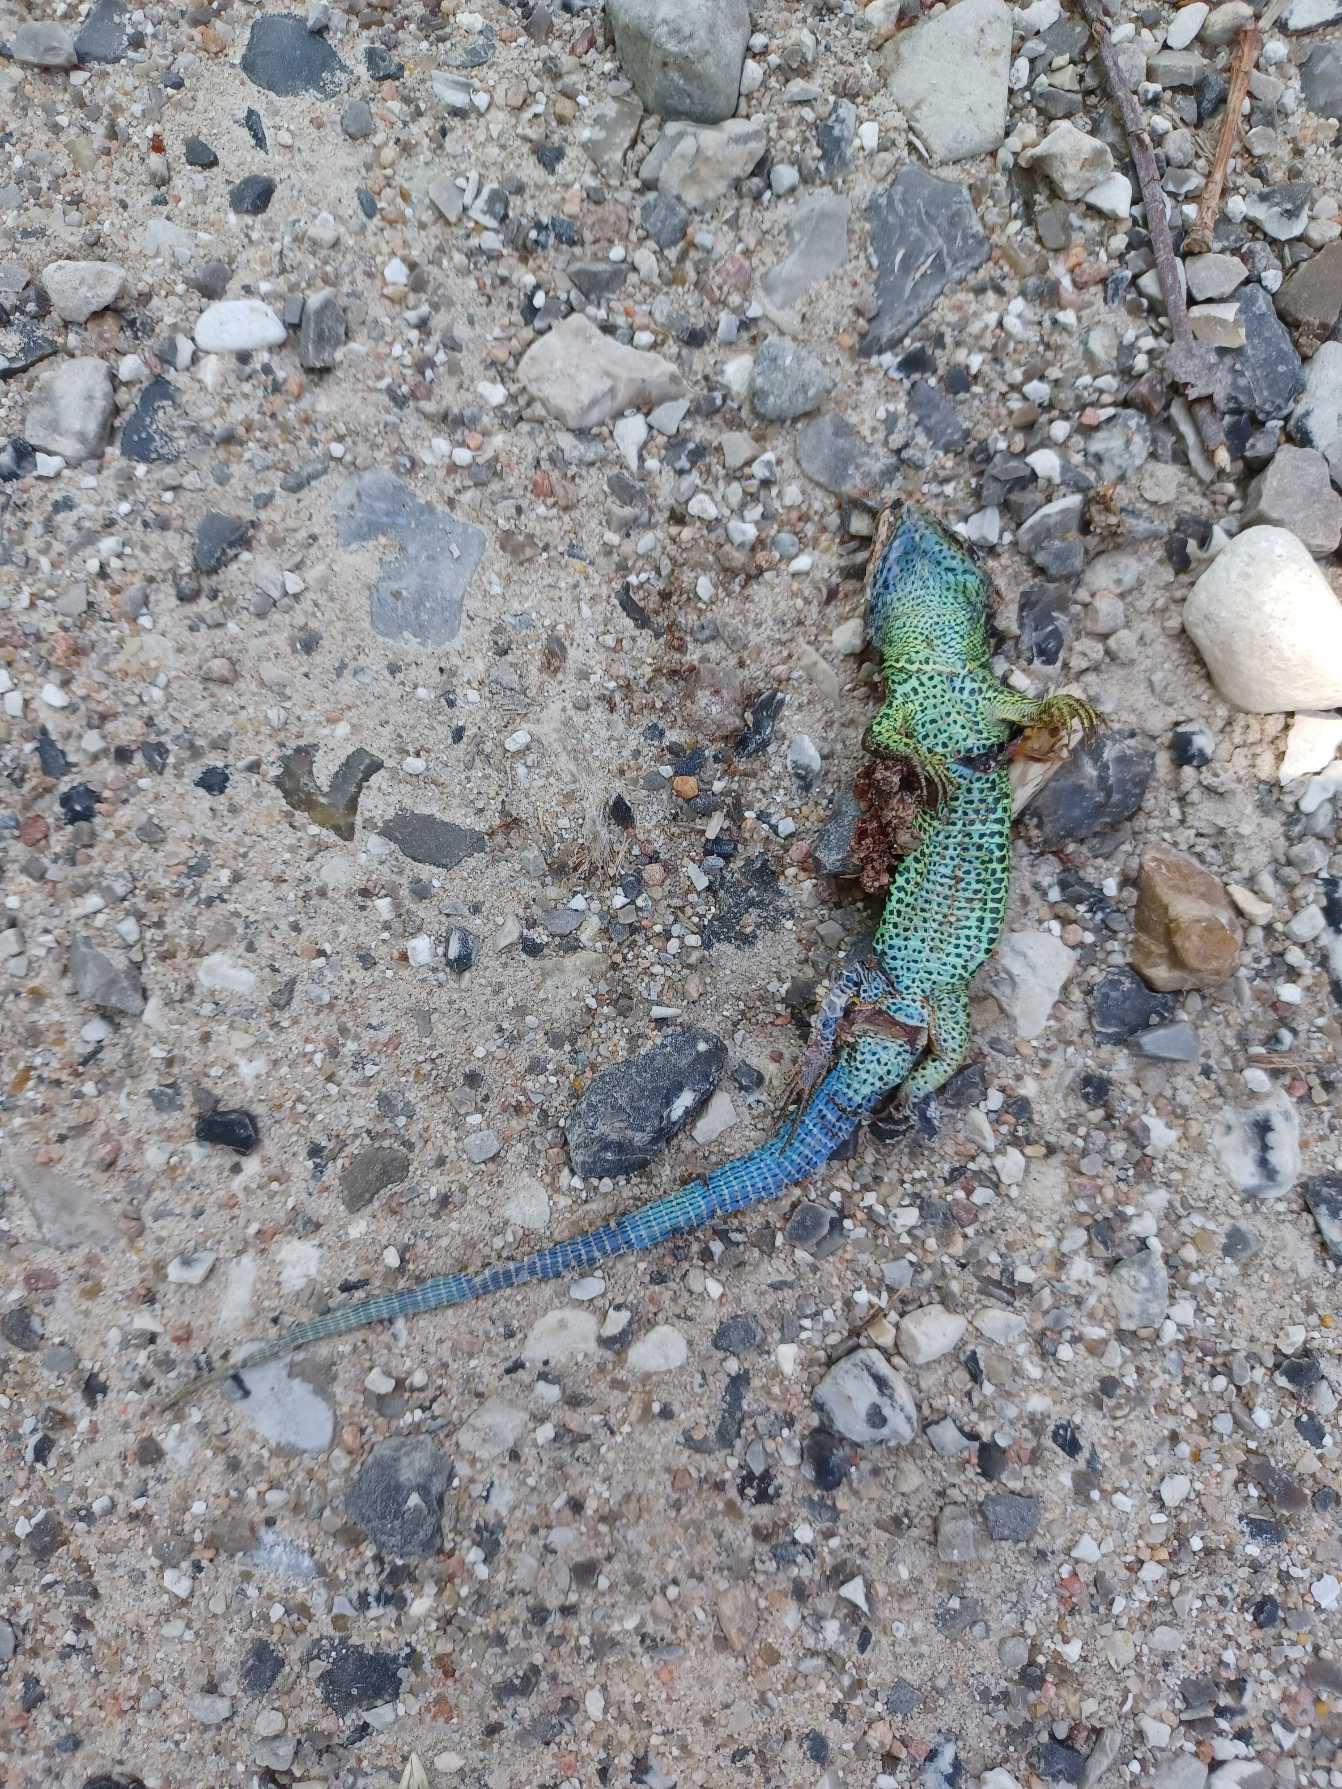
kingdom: Animalia
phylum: Chordata
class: Squamata
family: Lacertidae
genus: Lacerta
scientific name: Lacerta agilis
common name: Markfirben
